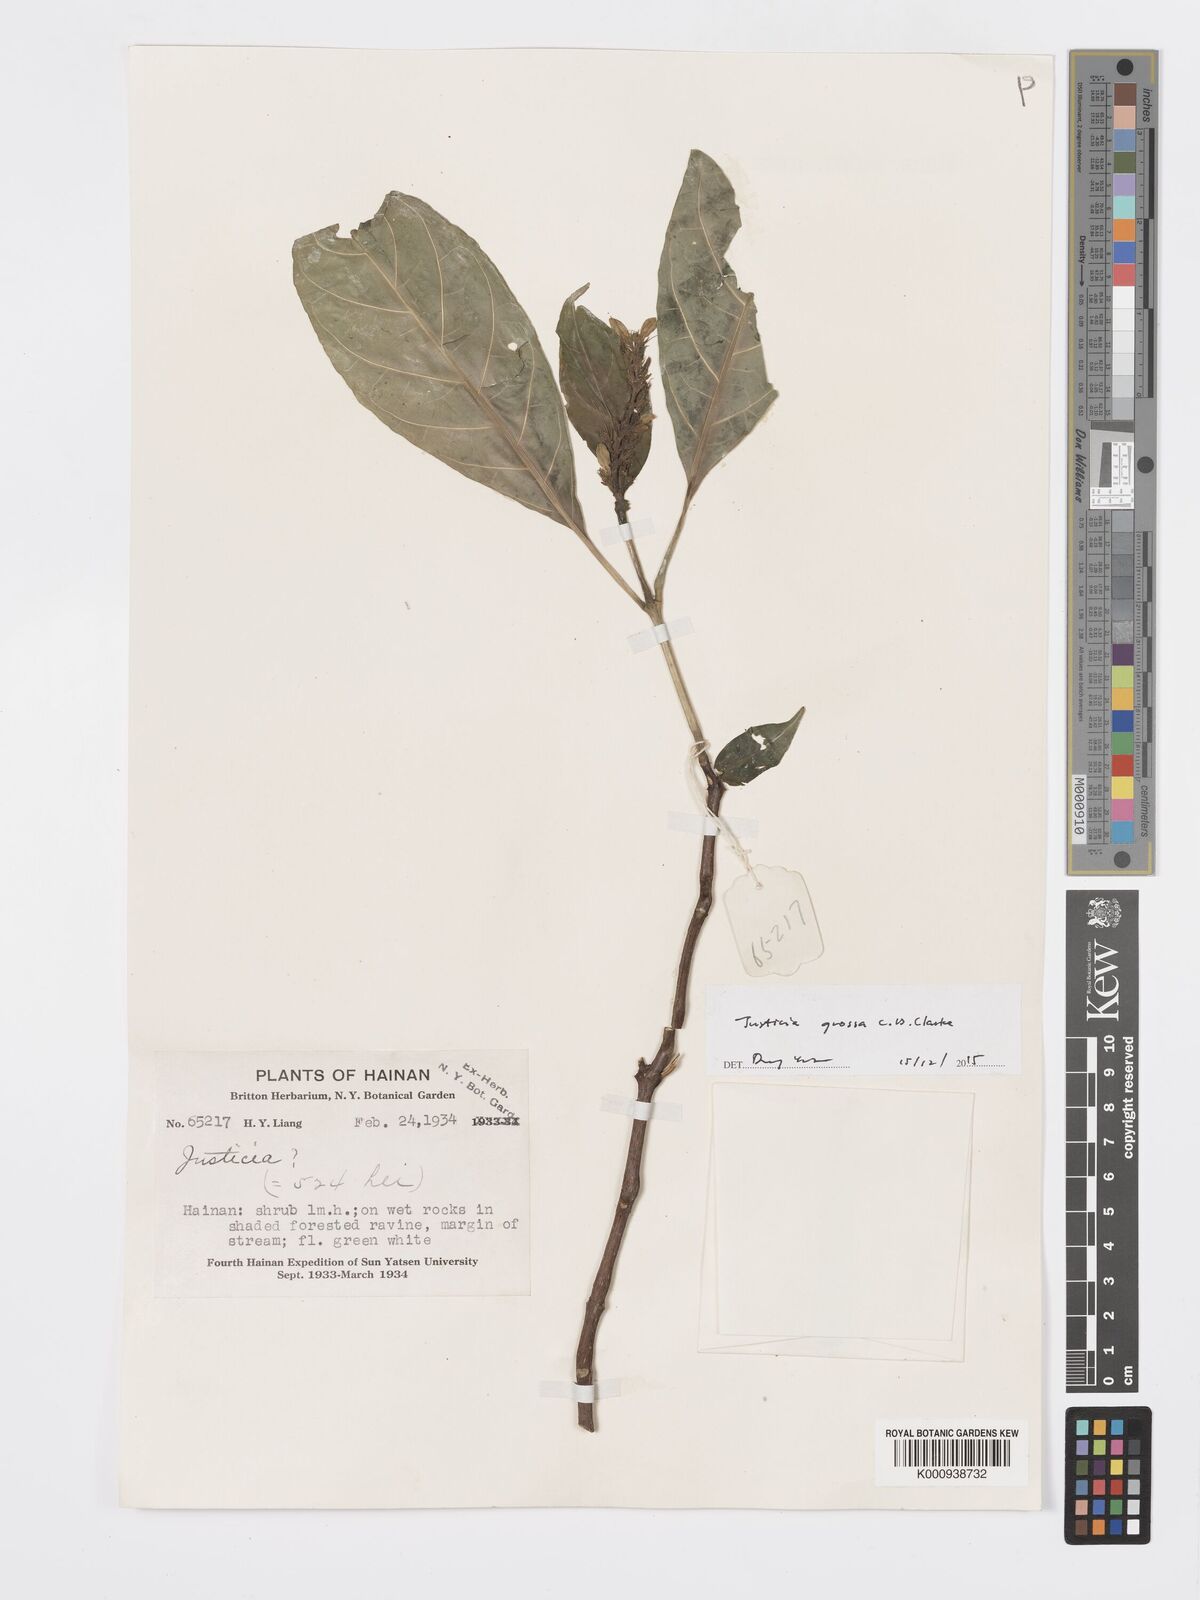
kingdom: Plantae
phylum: Tracheophyta
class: Magnoliopsida
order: Lamiales
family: Acanthaceae
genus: Ecbolium
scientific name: Ecbolium grossum
